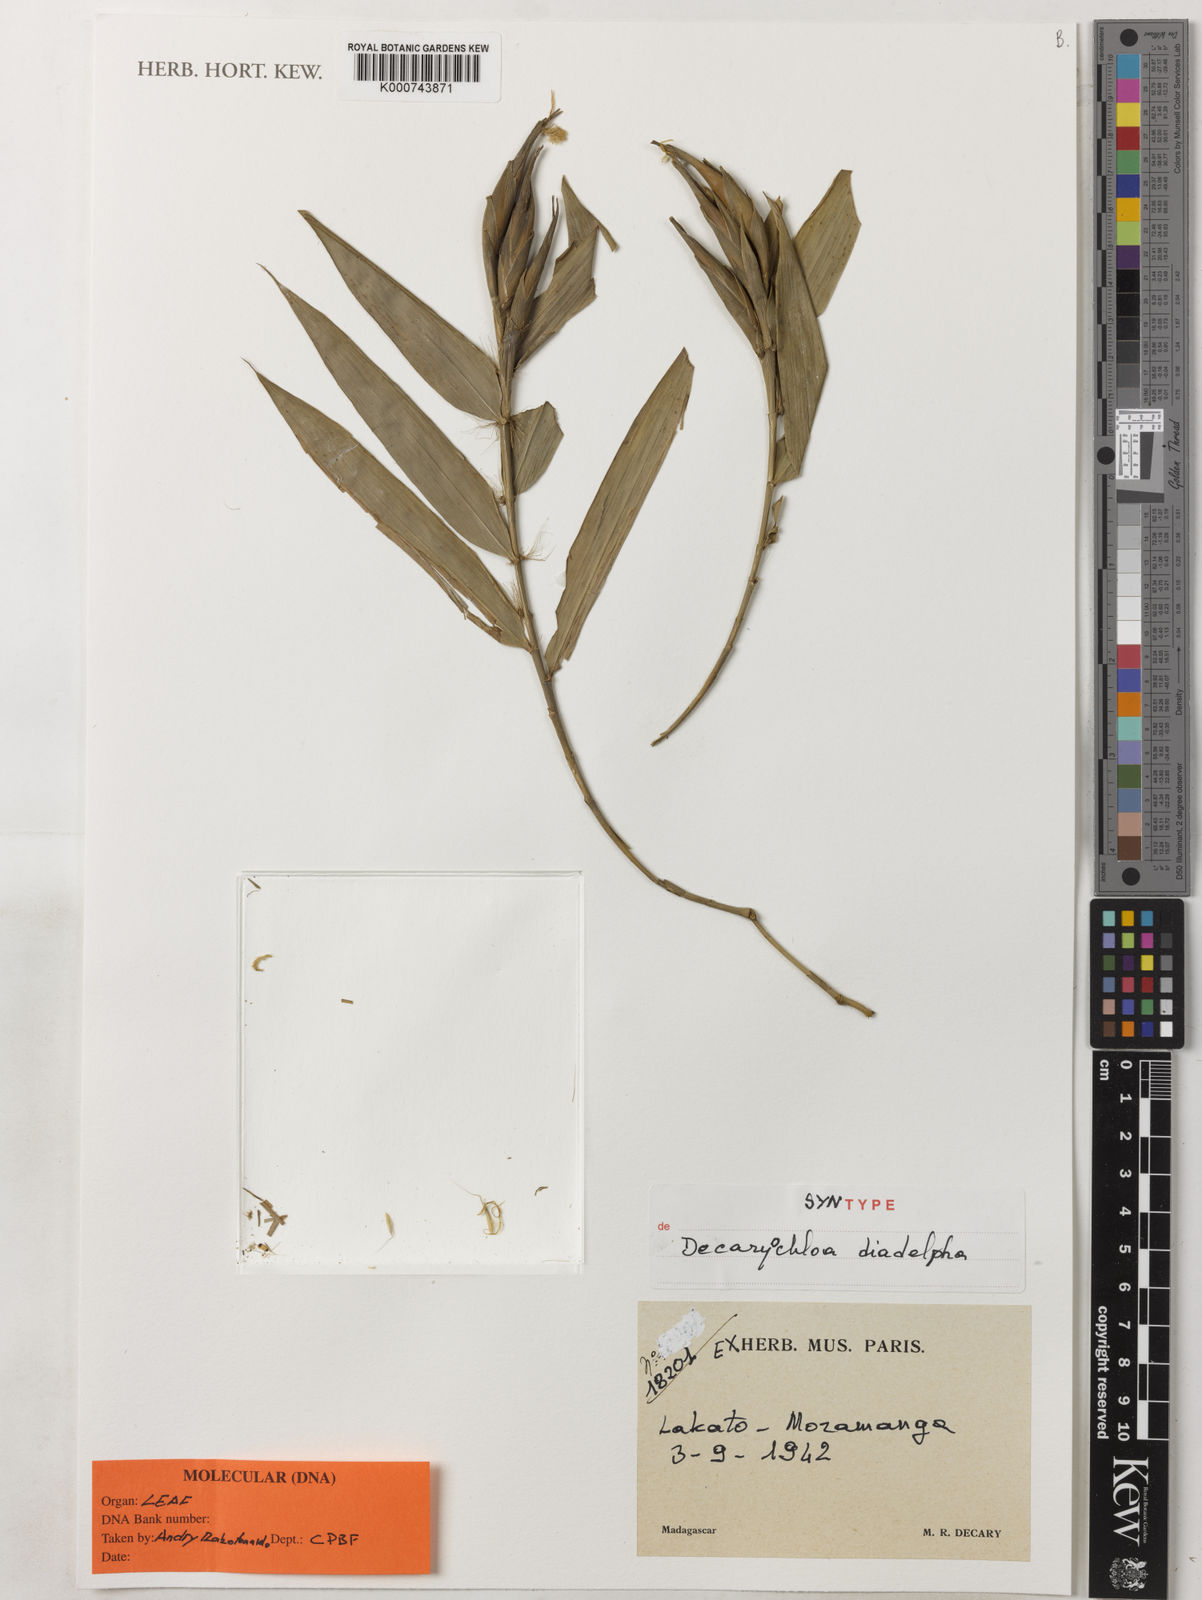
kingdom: Plantae
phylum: Tracheophyta
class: Liliopsida
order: Poales
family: Poaceae
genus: Decaryochloa
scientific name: Decaryochloa diadelpha
